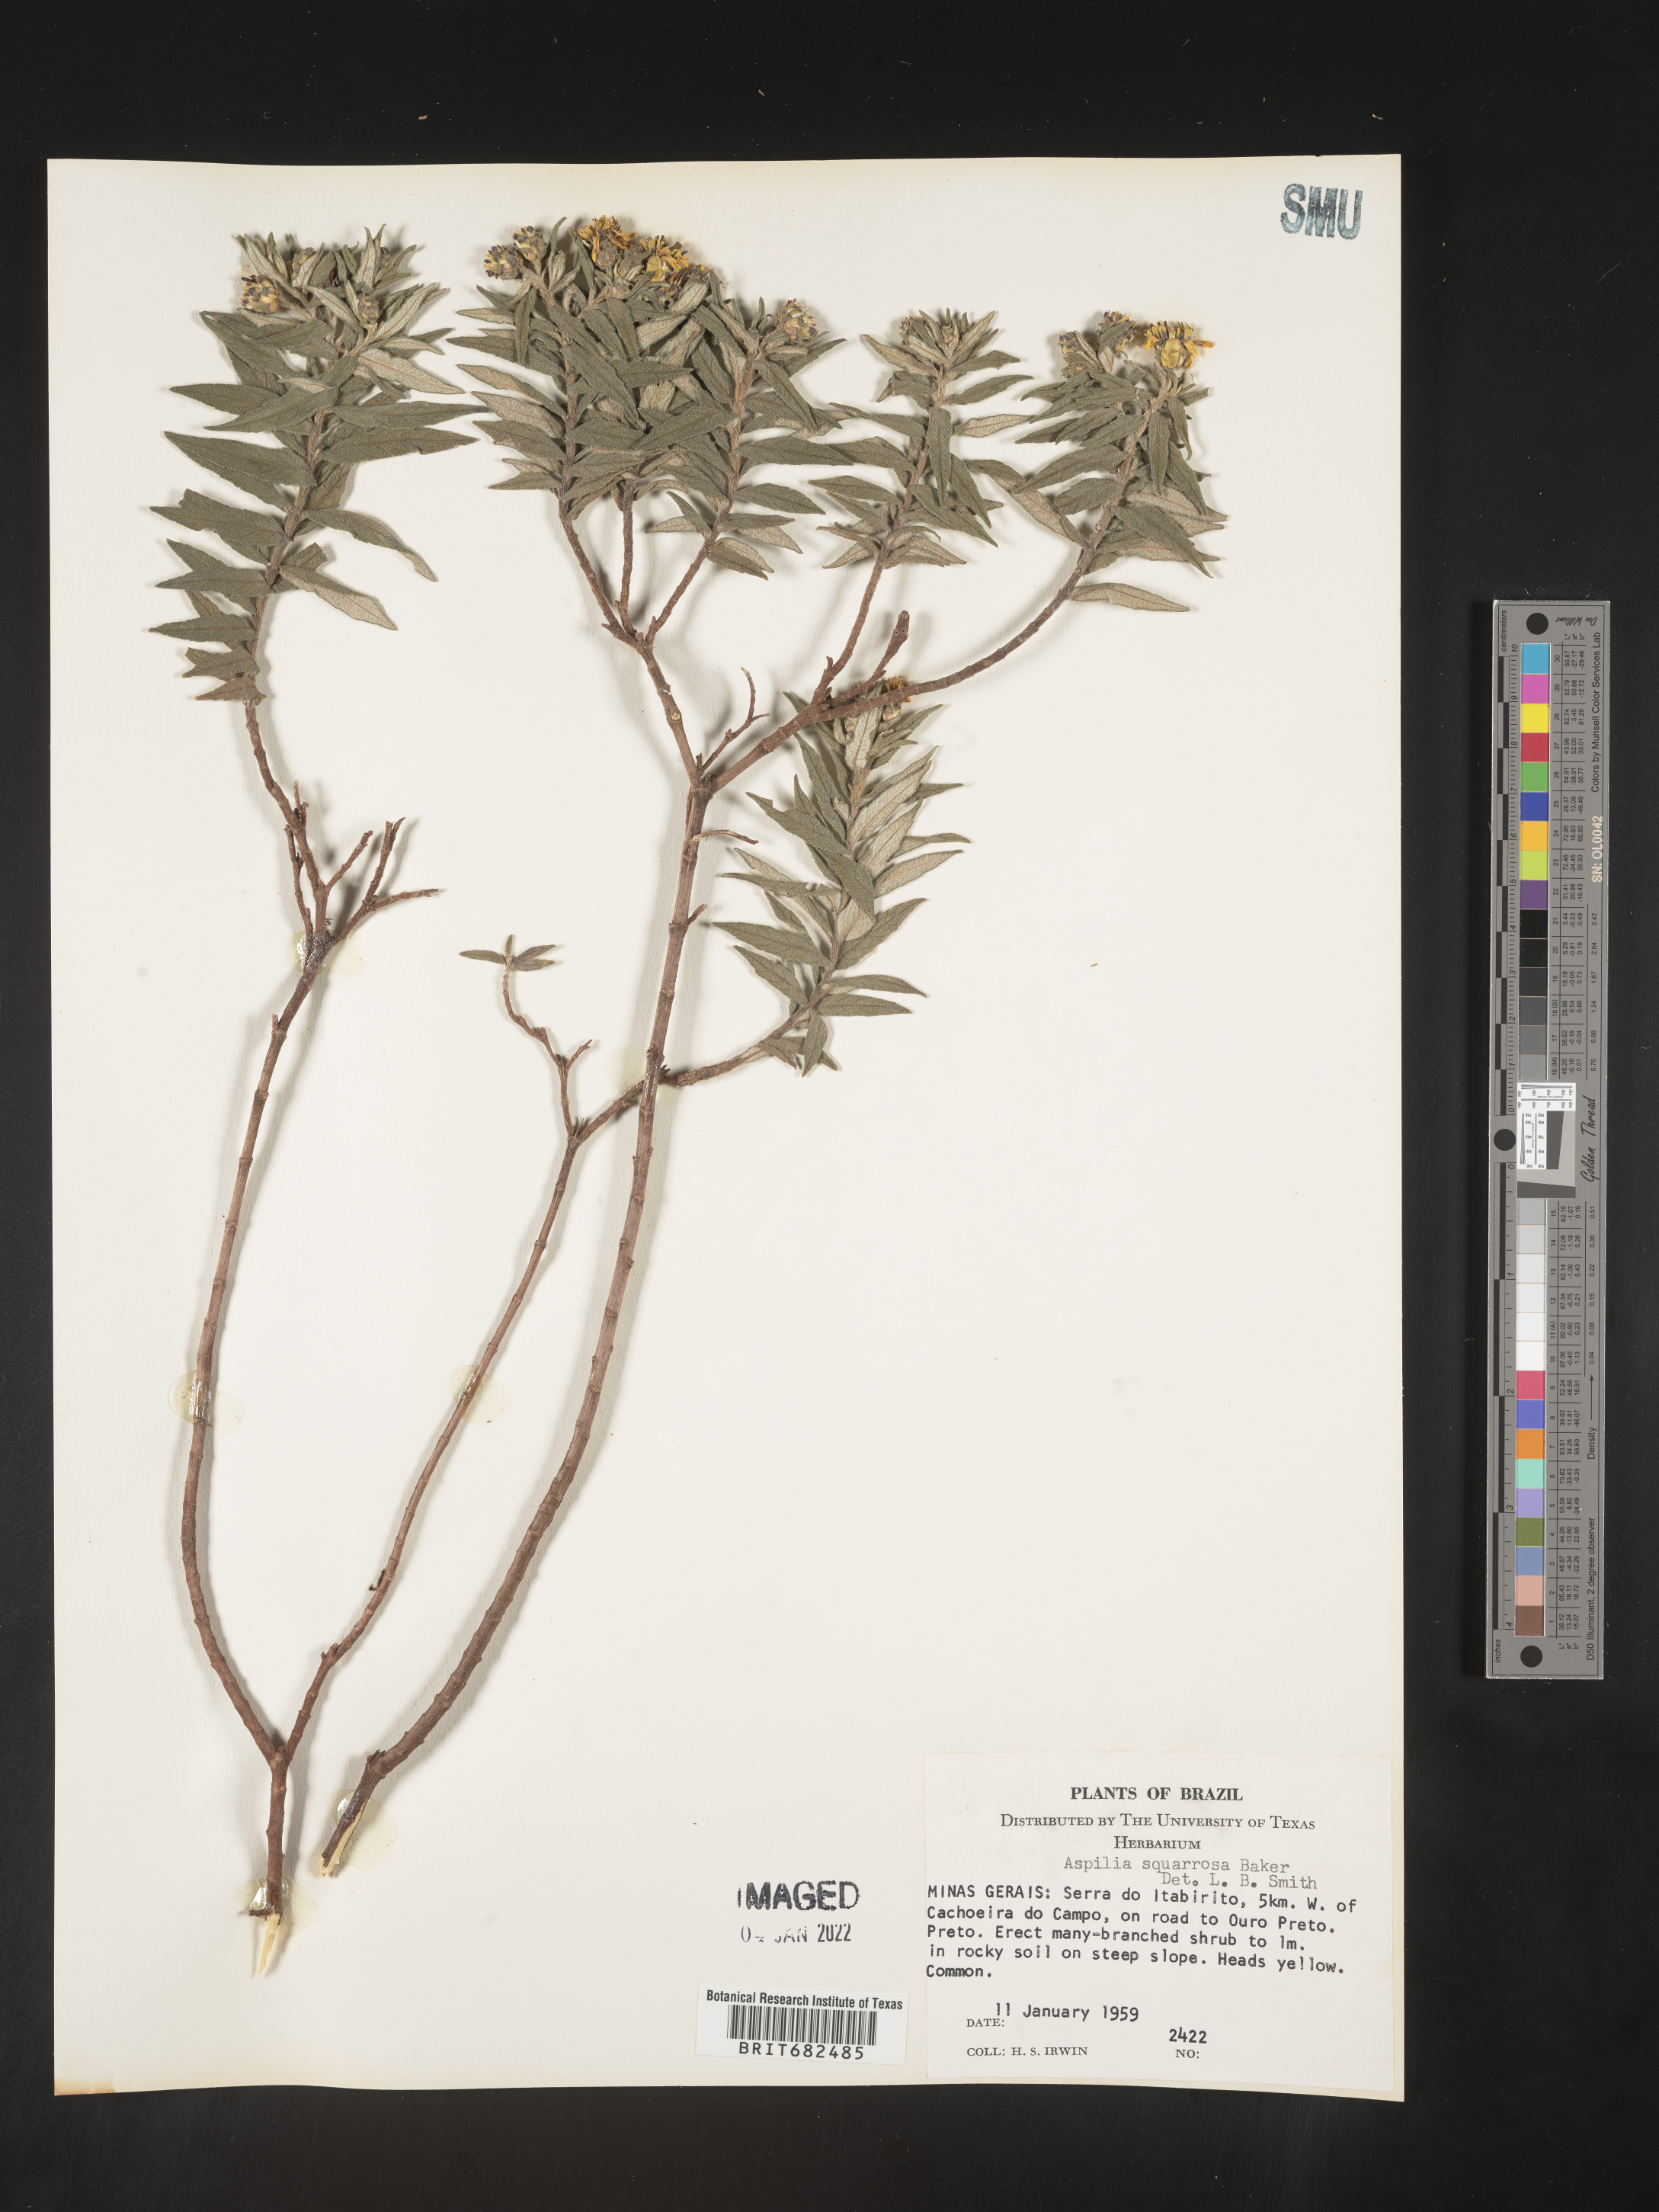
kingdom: Plantae
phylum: Tracheophyta
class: Magnoliopsida
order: Asterales
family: Asteraceae
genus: Aspilia
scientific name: Aspilia
